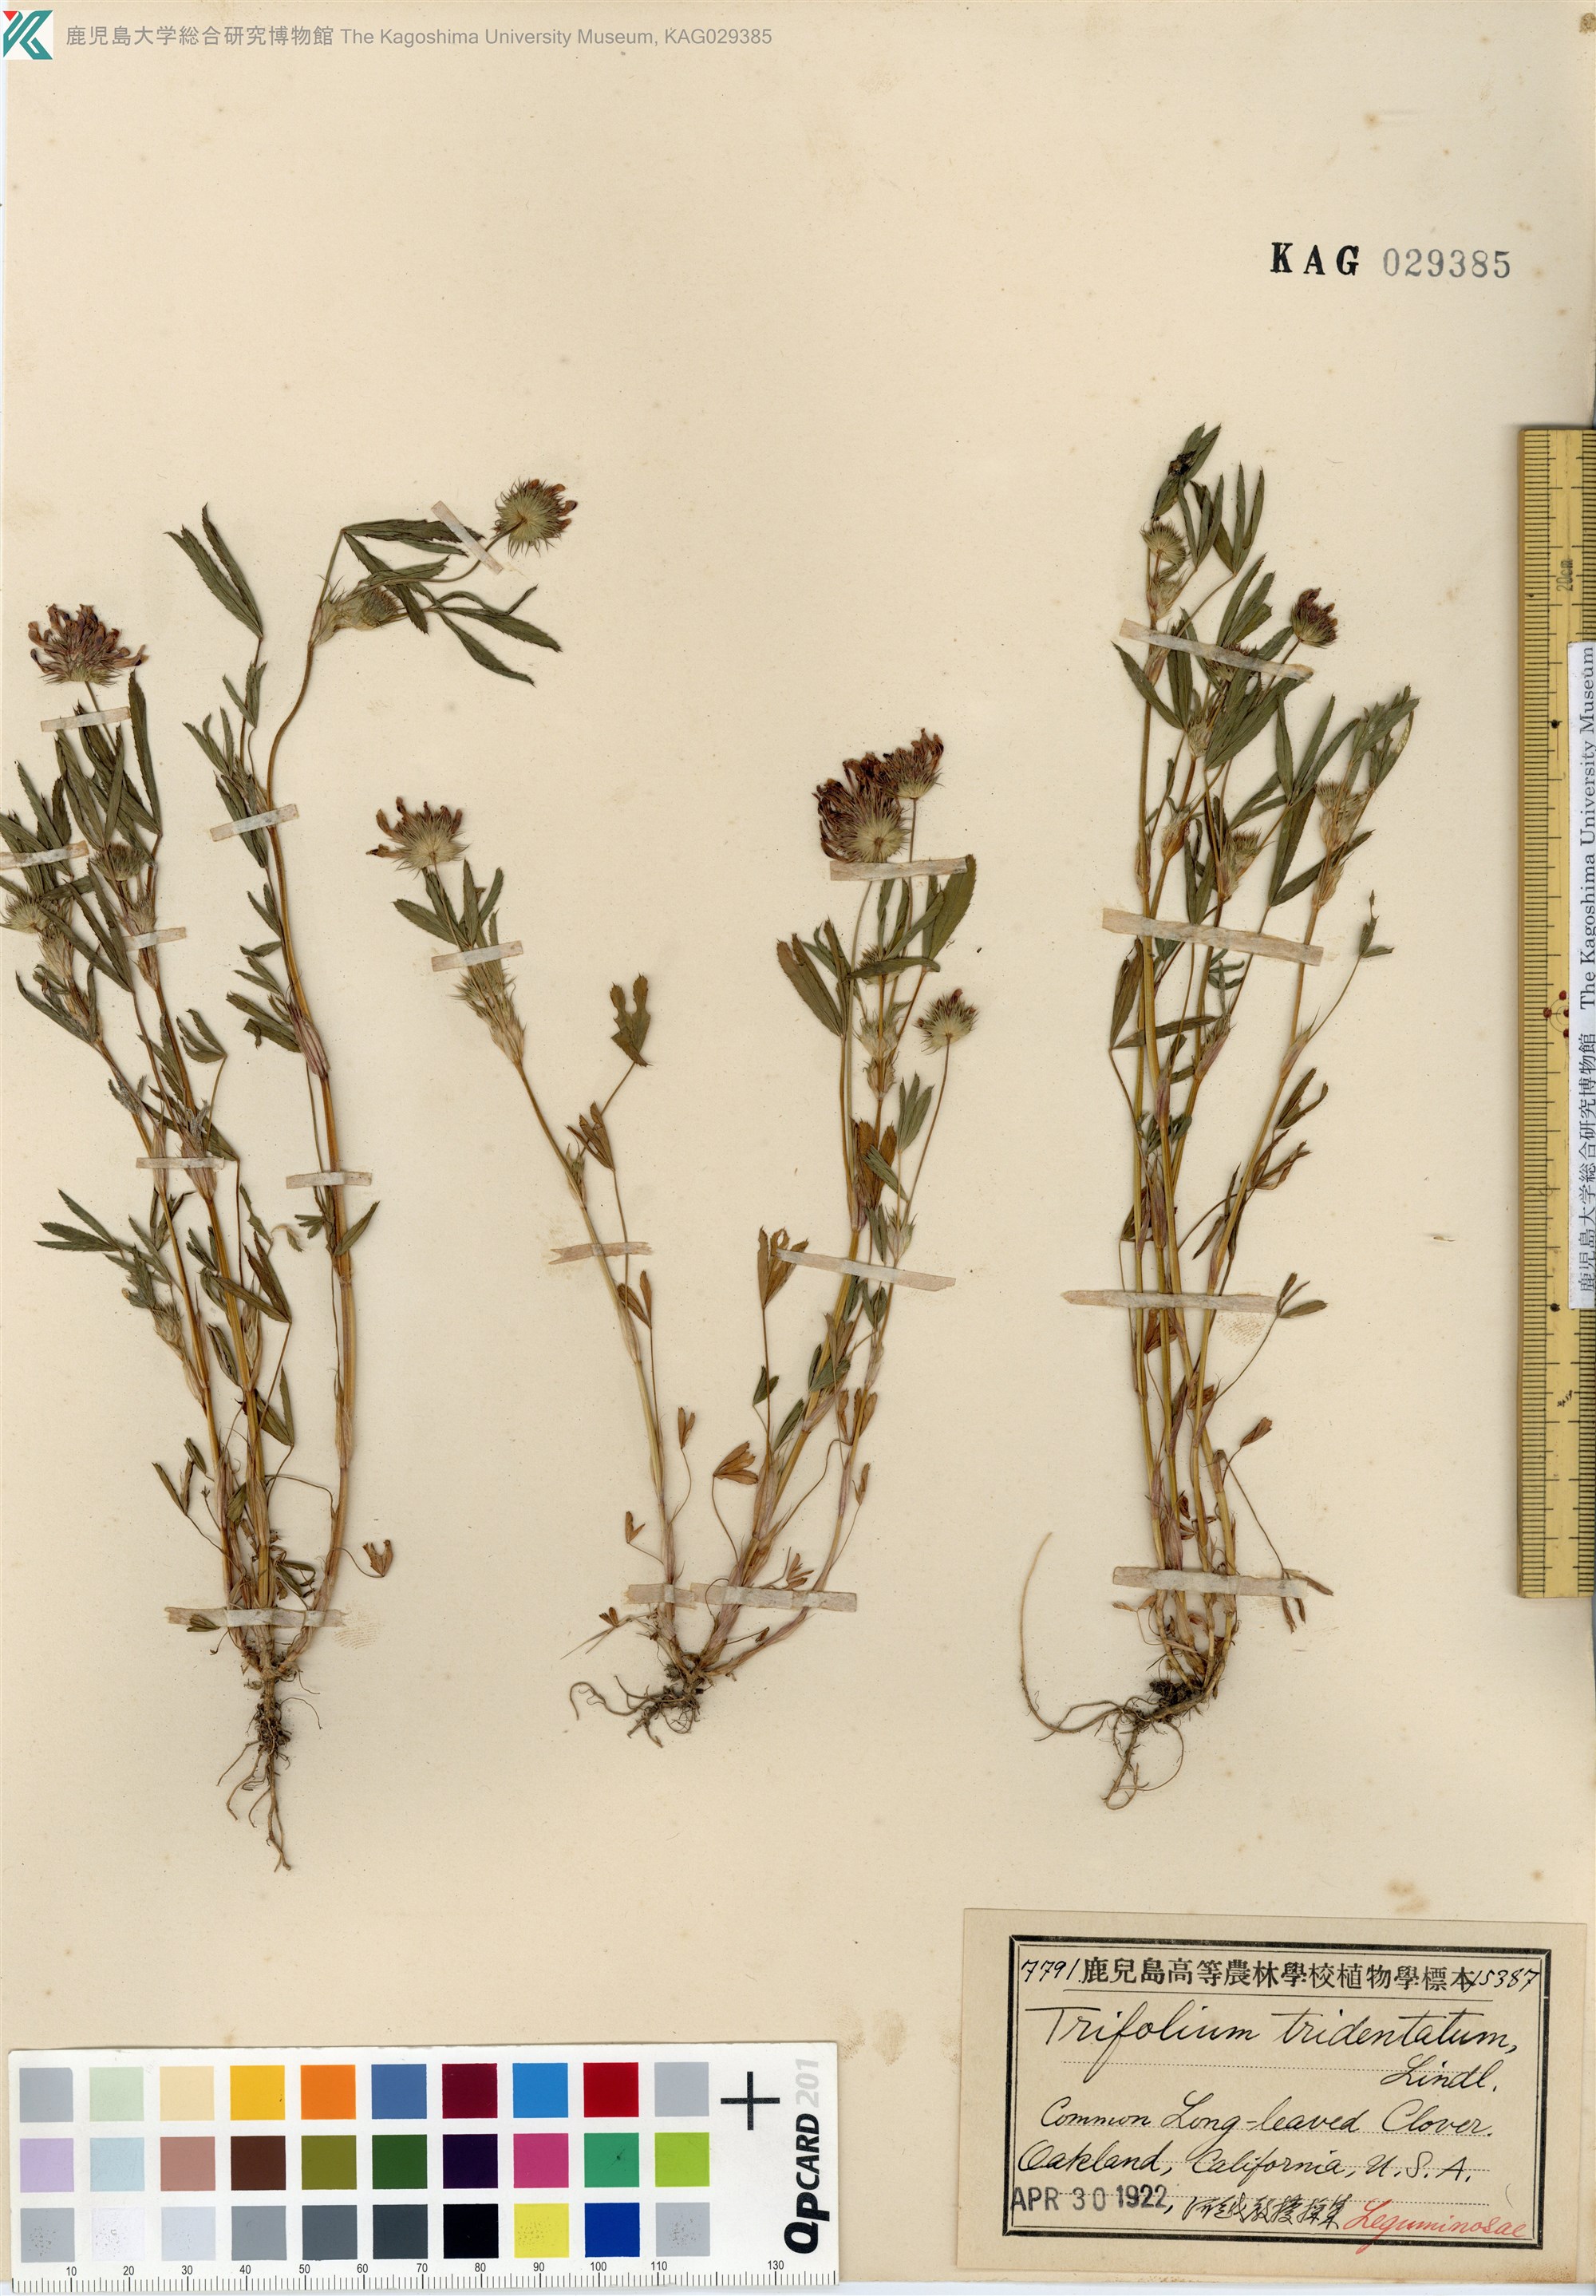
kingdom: Plantae
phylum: Tracheophyta
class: Magnoliopsida
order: Fabales
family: Fabaceae
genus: Trifolium
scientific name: Trifolium willdenovii
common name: Tomcat clover
